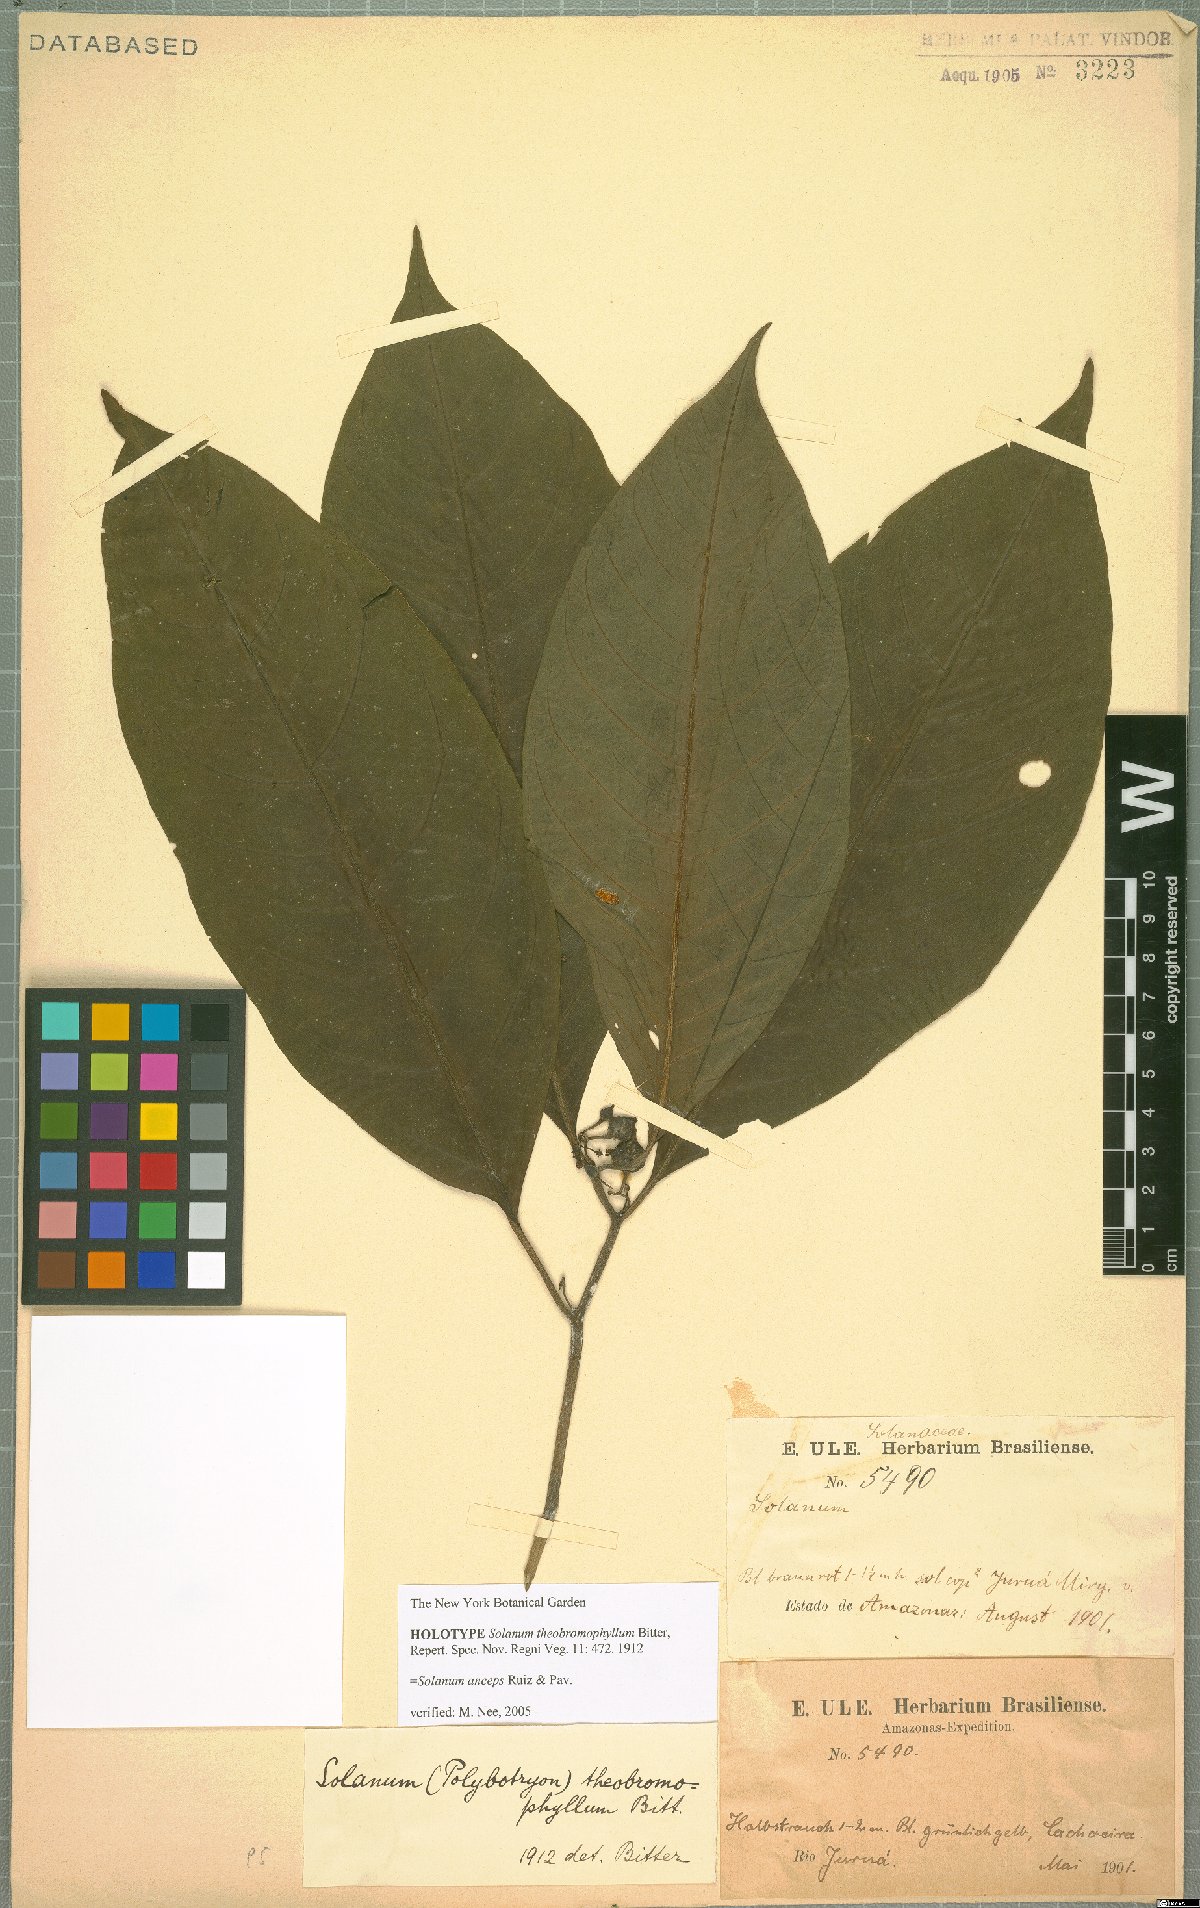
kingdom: Plantae
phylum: Tracheophyta
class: Magnoliopsida
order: Solanales
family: Solanaceae
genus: Solanum
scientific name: Solanum anceps
